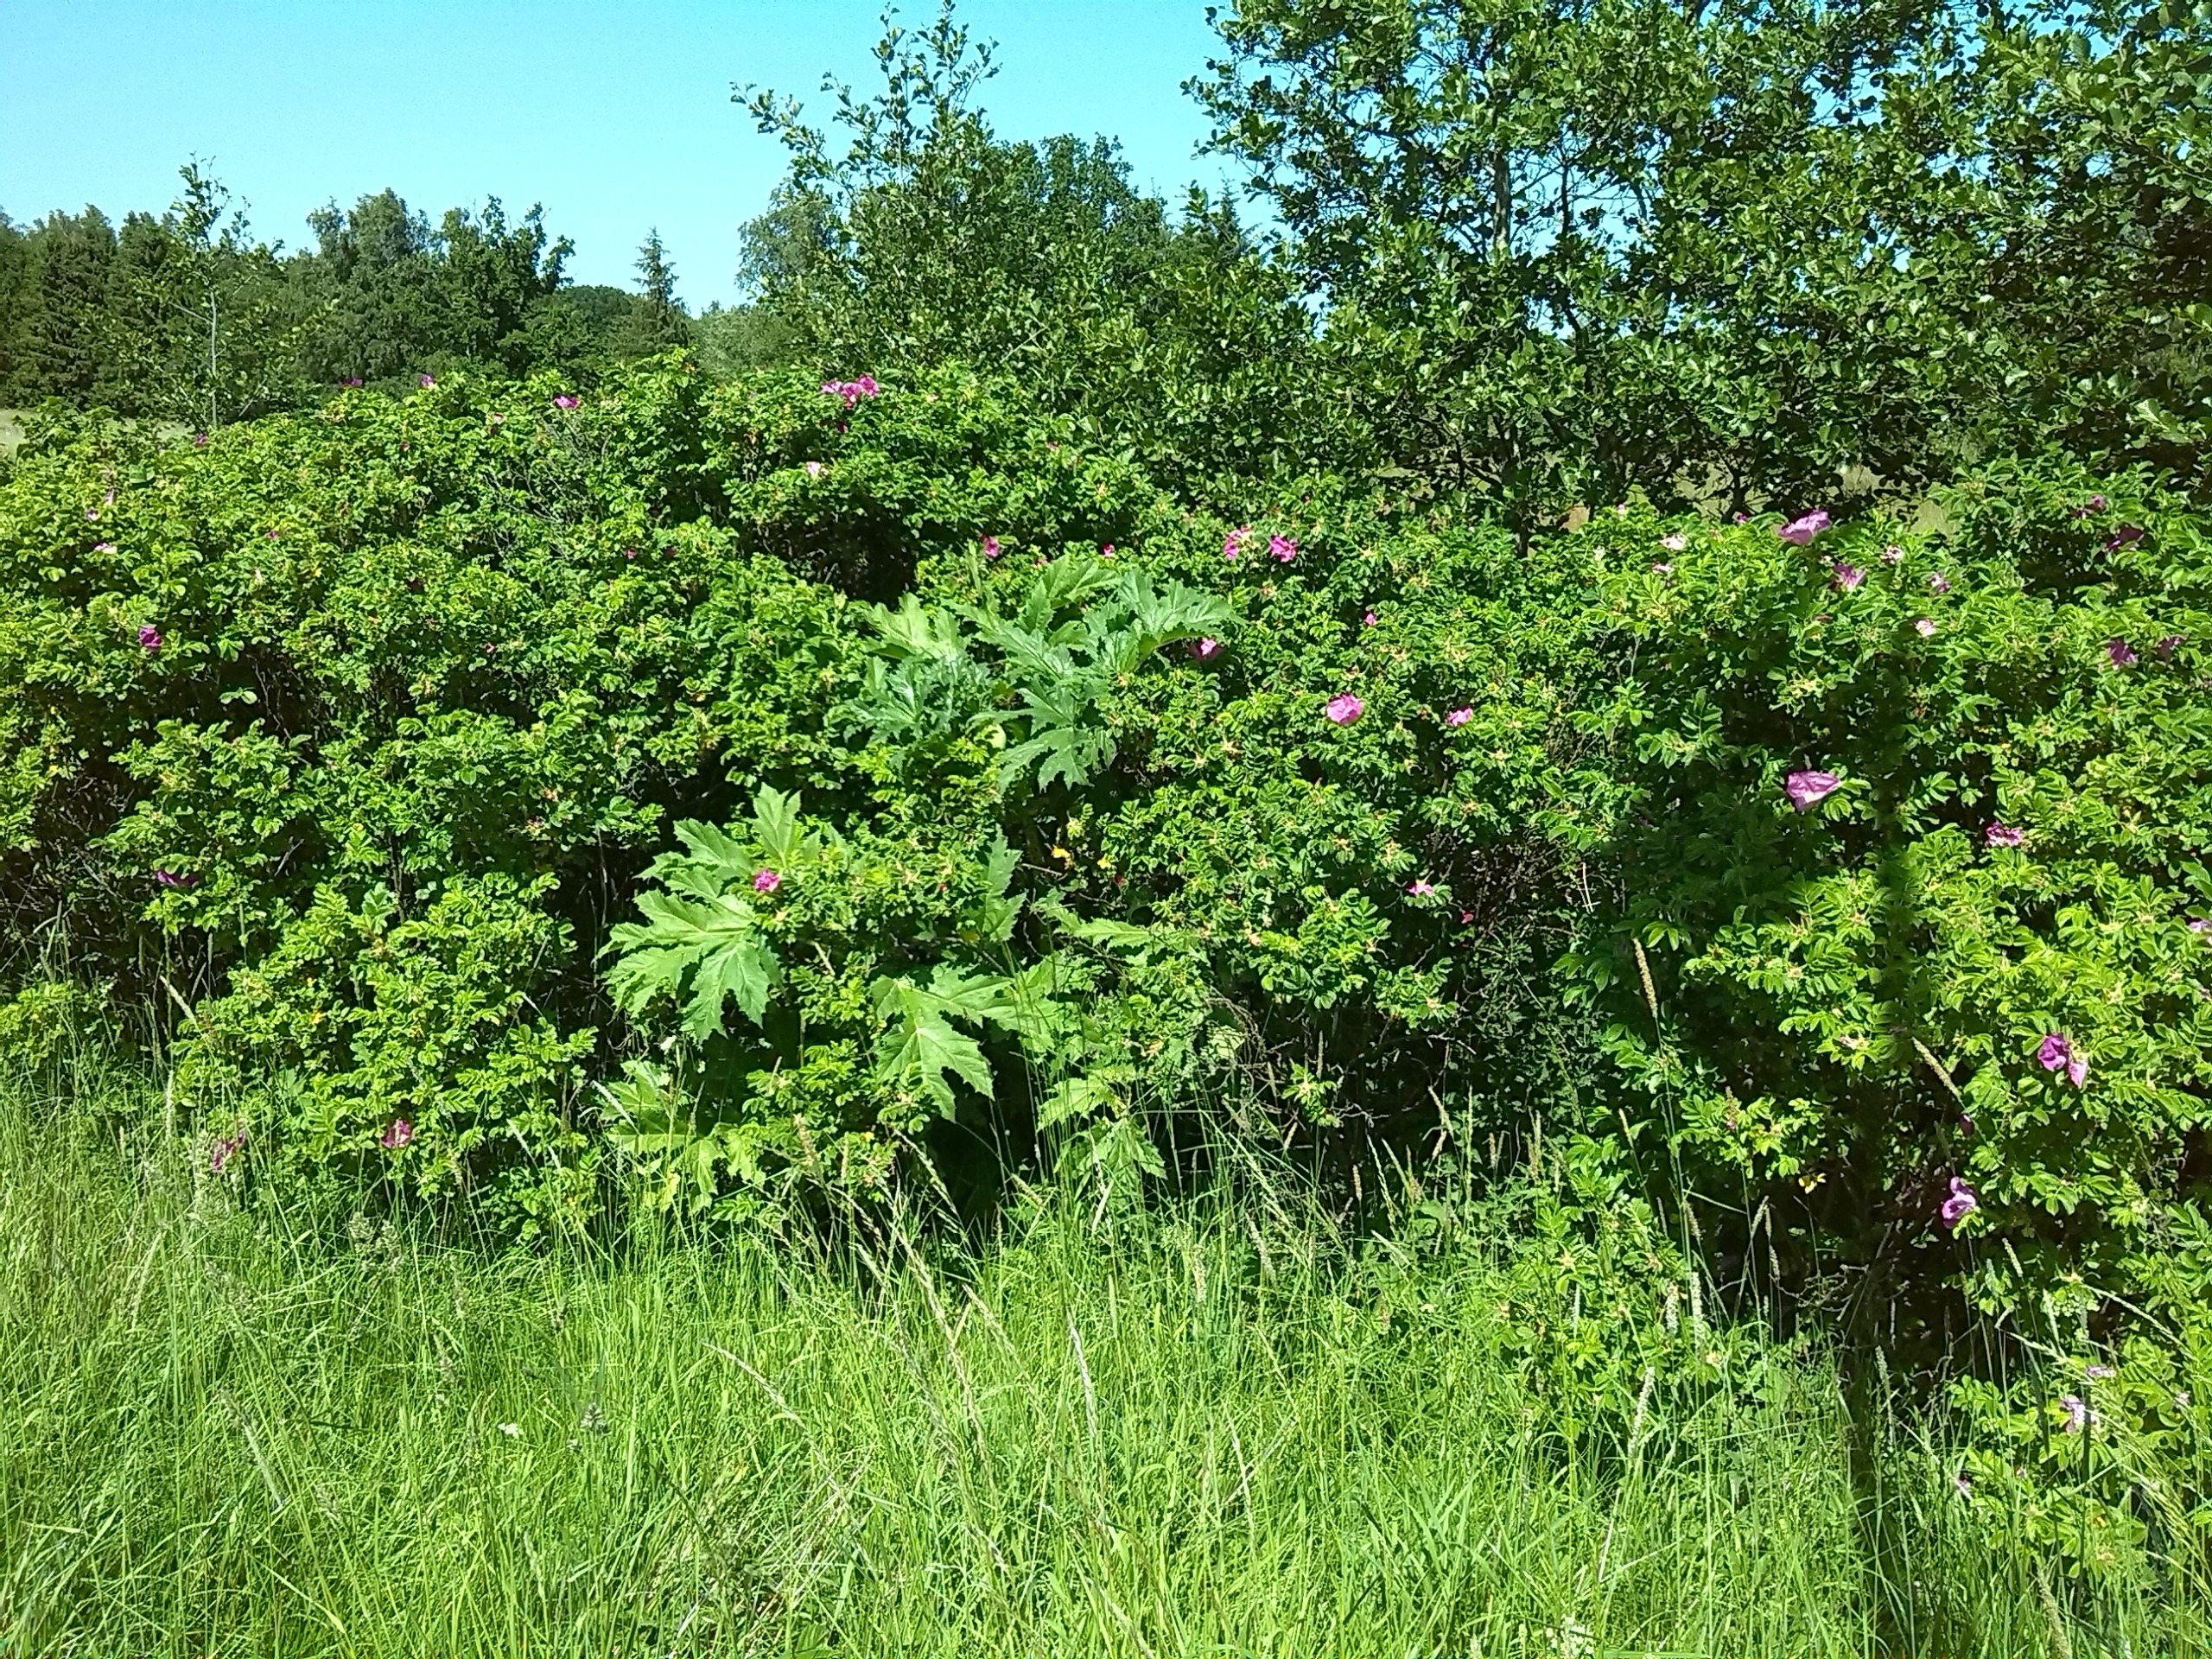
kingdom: Plantae
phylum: Tracheophyta
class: Magnoliopsida
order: Apiales
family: Apiaceae
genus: Heracleum
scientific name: Heracleum mantegazzianum
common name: Kæmpe-bjørneklo
